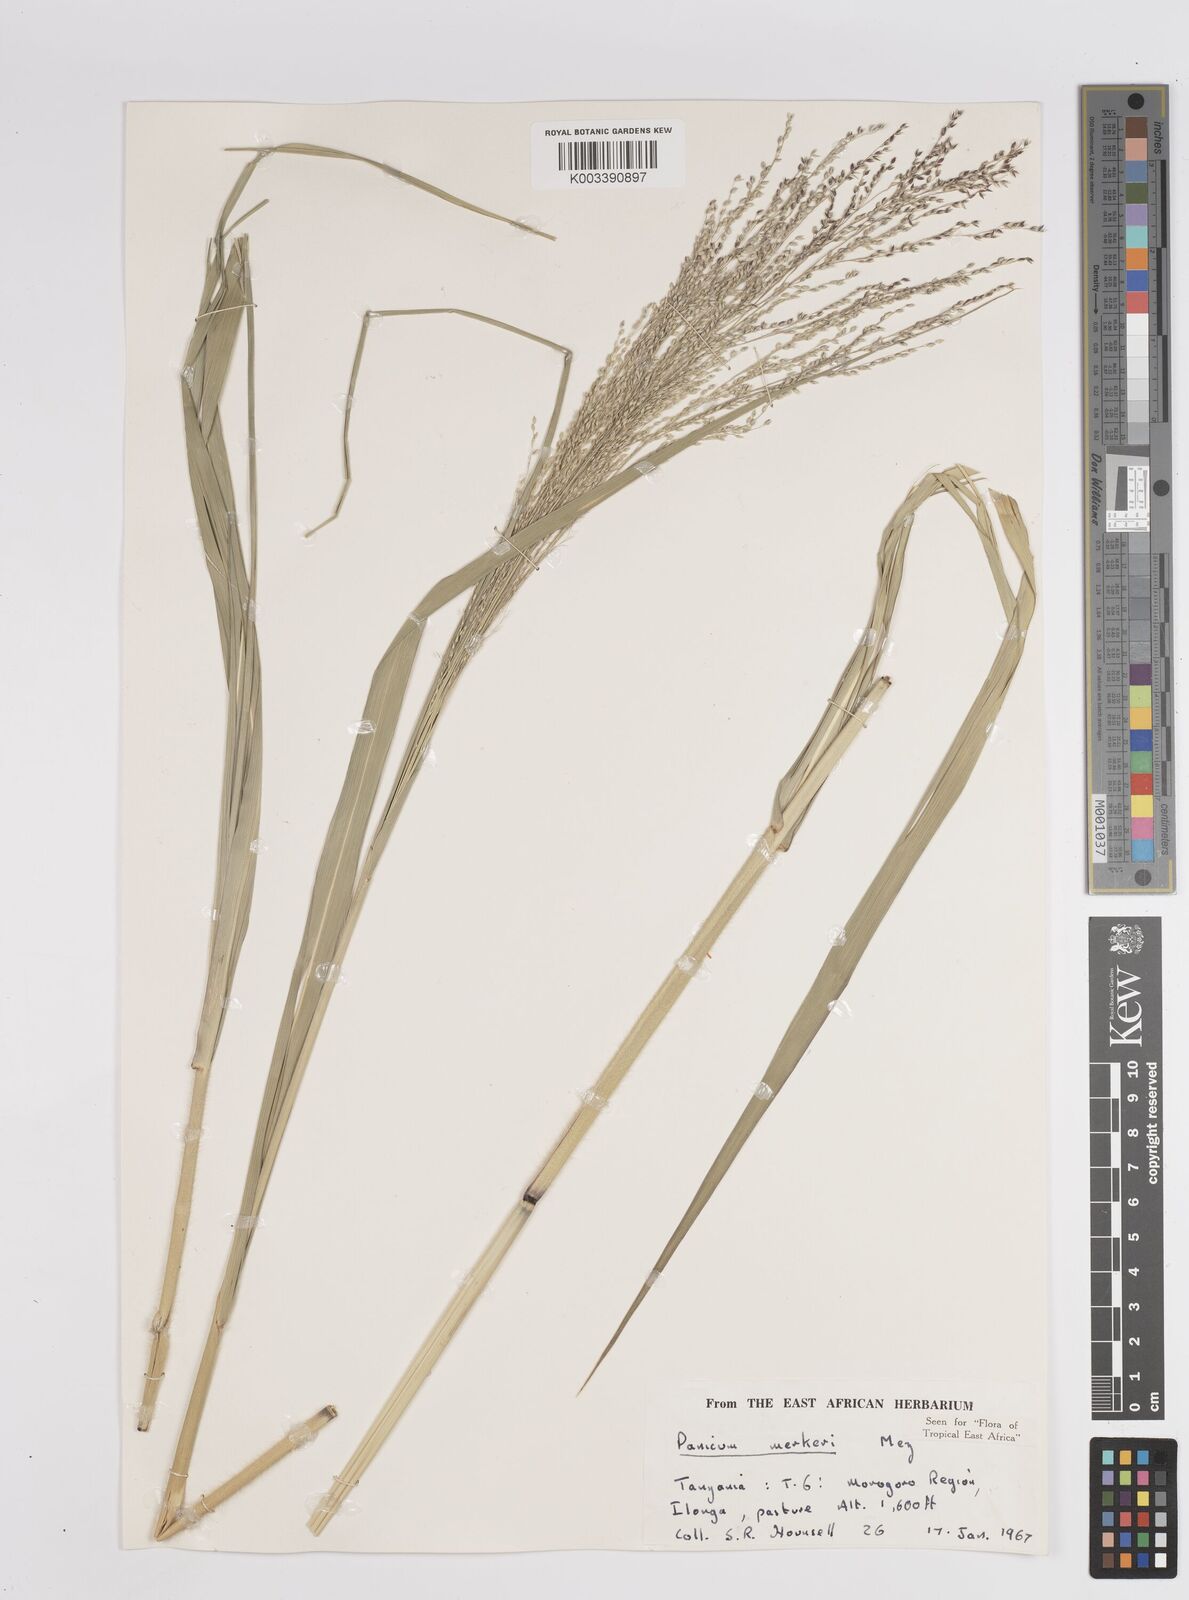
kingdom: Plantae
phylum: Tracheophyta
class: Liliopsida
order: Poales
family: Poaceae
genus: Panicum
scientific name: Panicum merkeri
